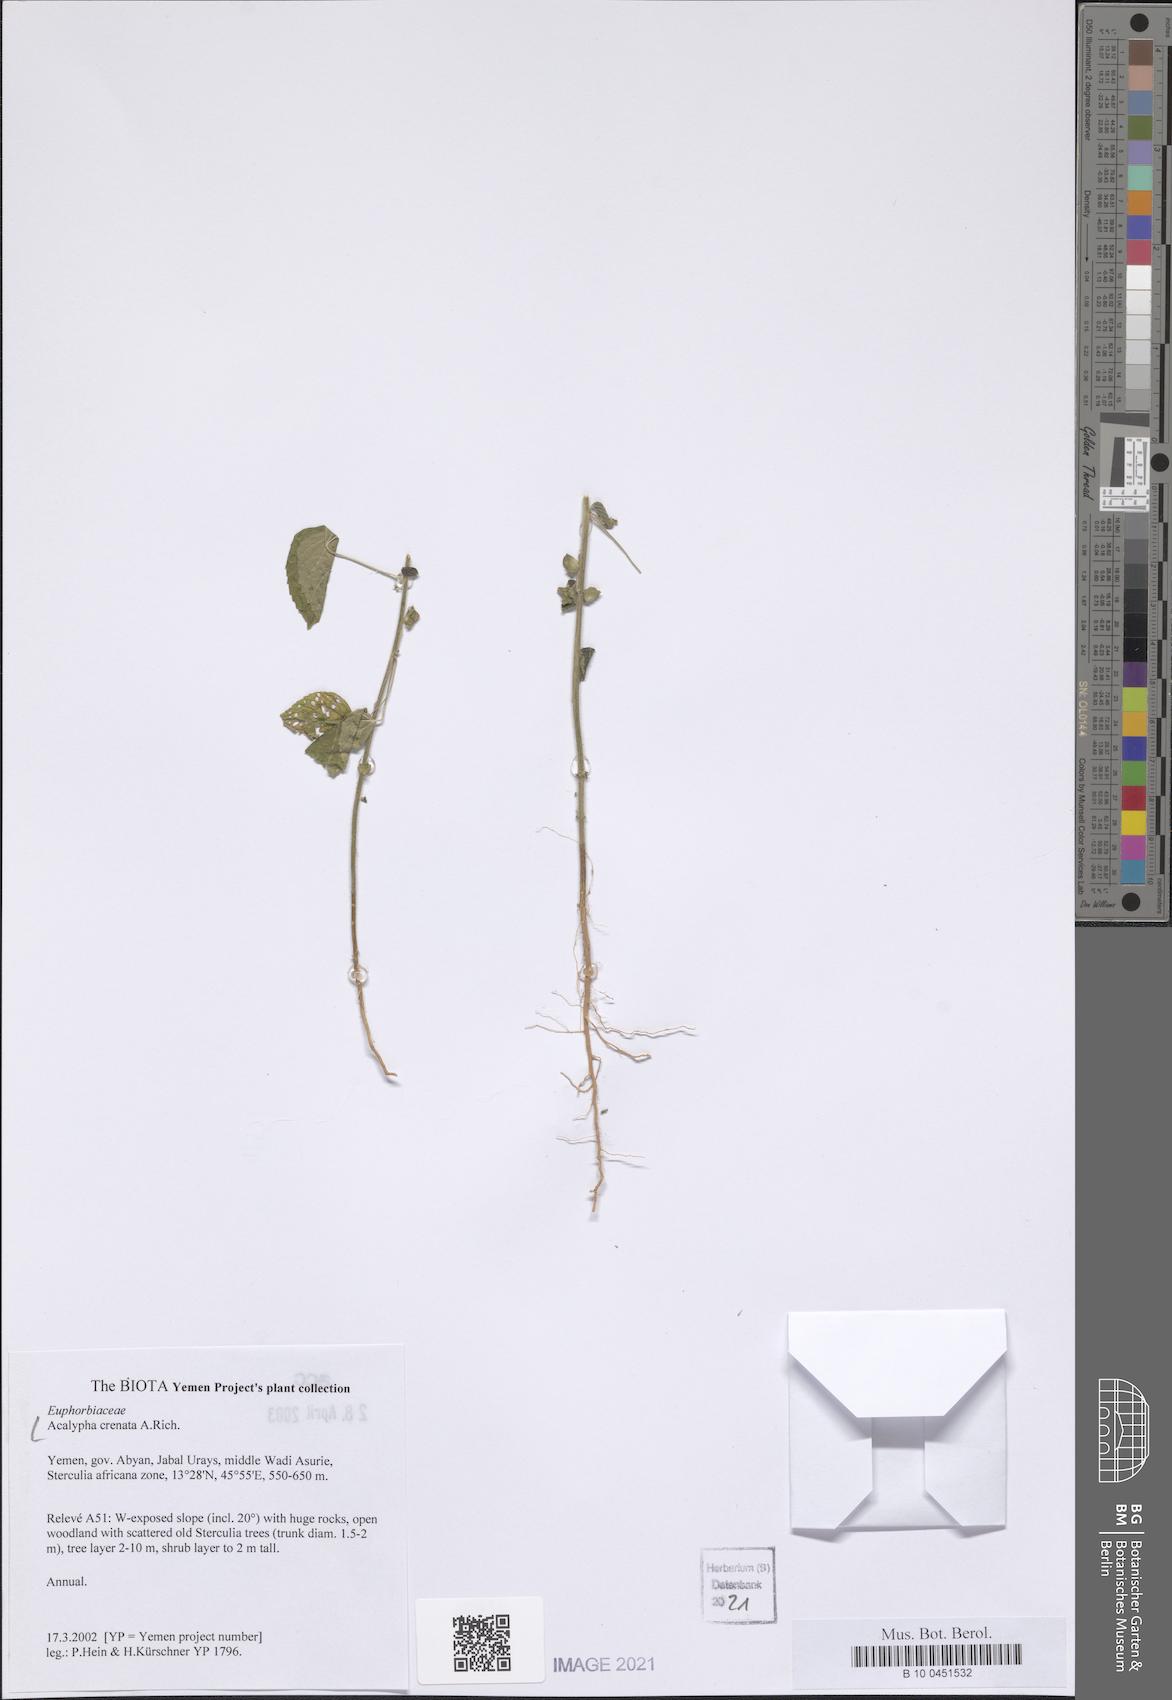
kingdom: Plantae
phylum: Tracheophyta
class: Magnoliopsida
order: Malpighiales
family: Euphorbiaceae
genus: Acalypha
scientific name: Acalypha crenata
